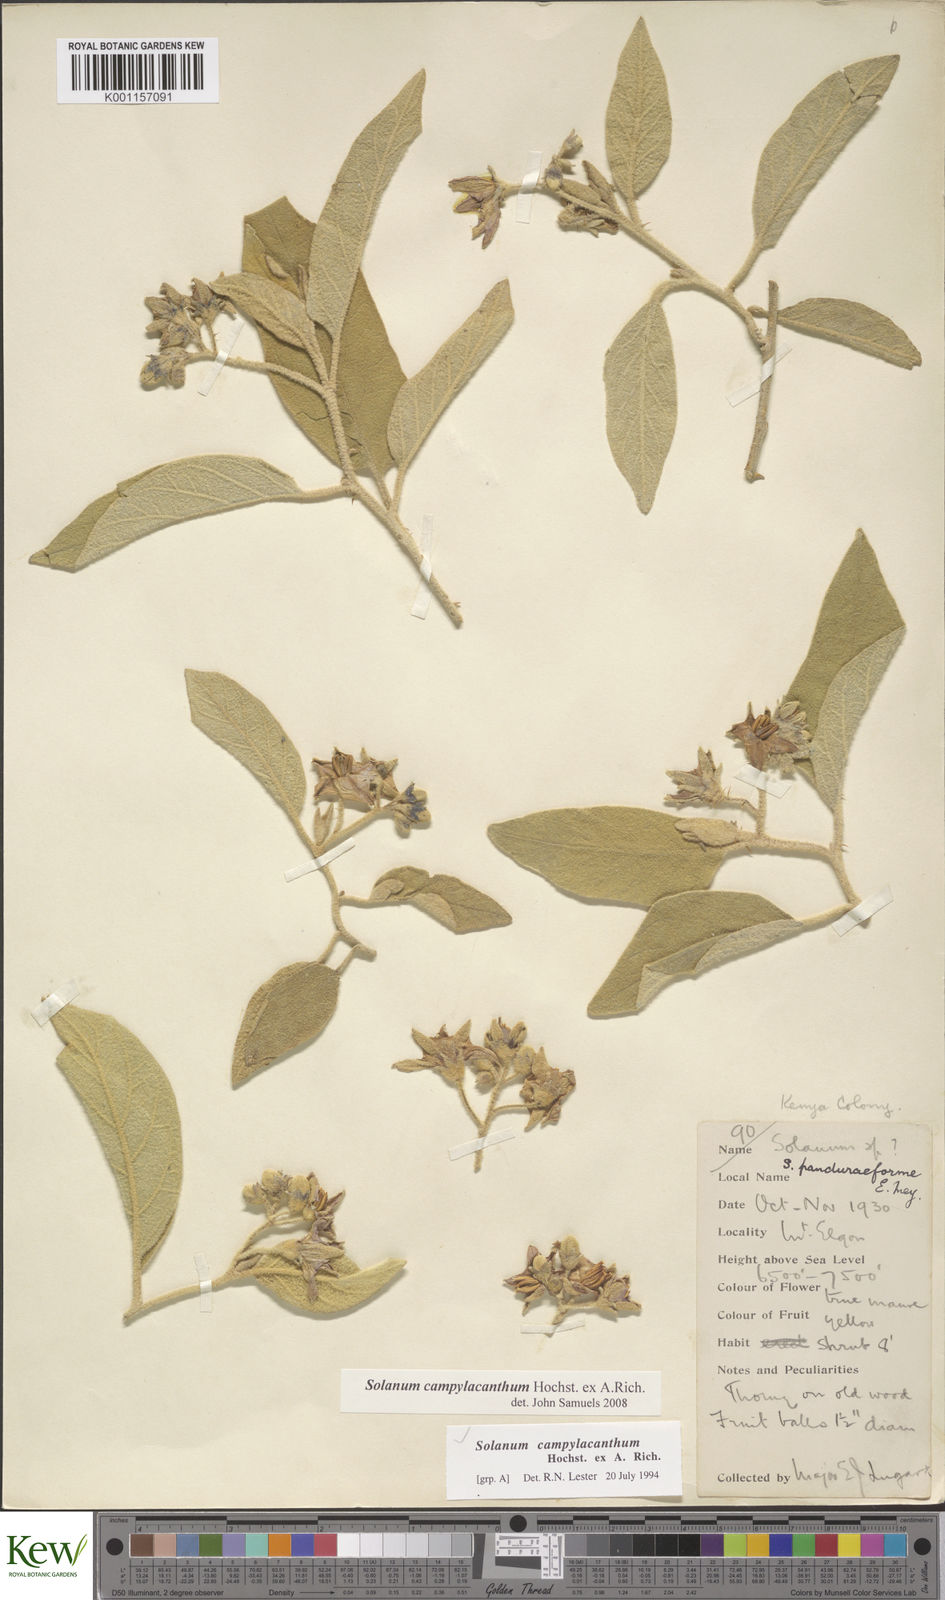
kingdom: Plantae
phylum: Tracheophyta
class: Magnoliopsida
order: Solanales
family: Solanaceae
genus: Solanum
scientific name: Solanum campylacanthum
